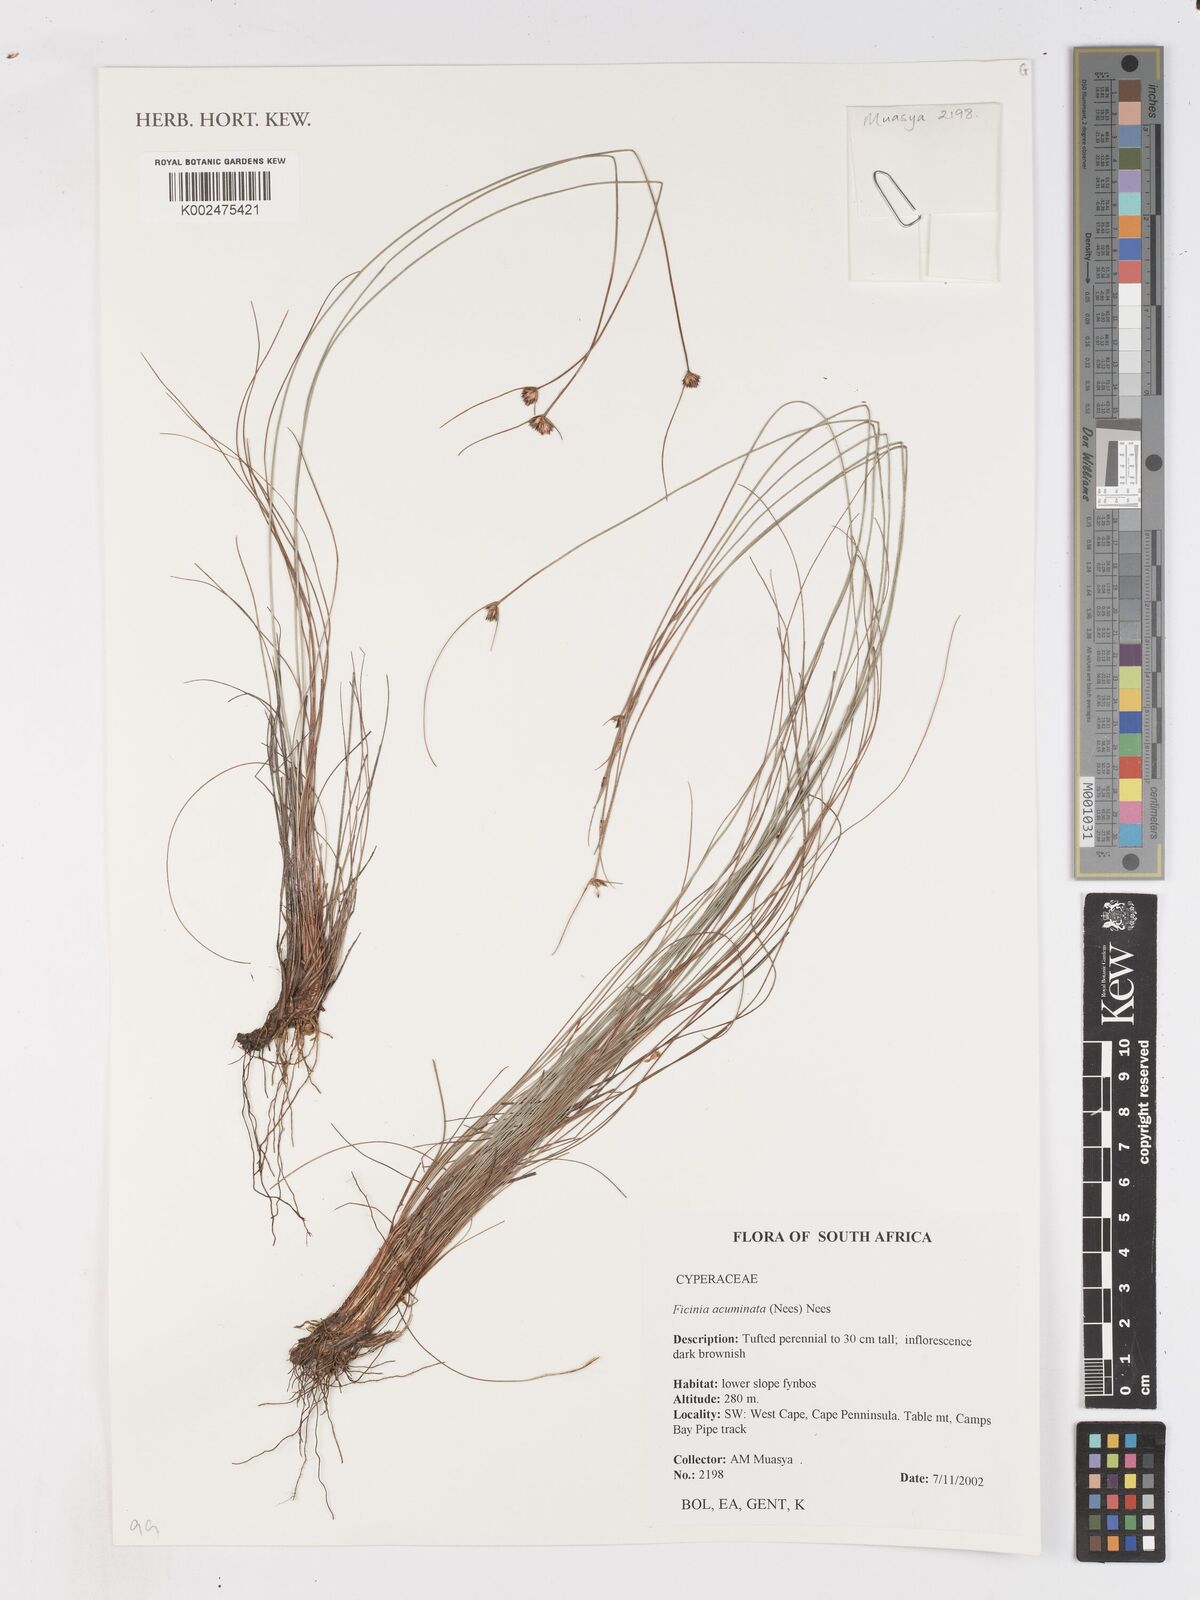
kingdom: Plantae
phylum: Tracheophyta
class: Liliopsida
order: Poales
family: Cyperaceae
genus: Ficinia
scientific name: Ficinia acuminata
